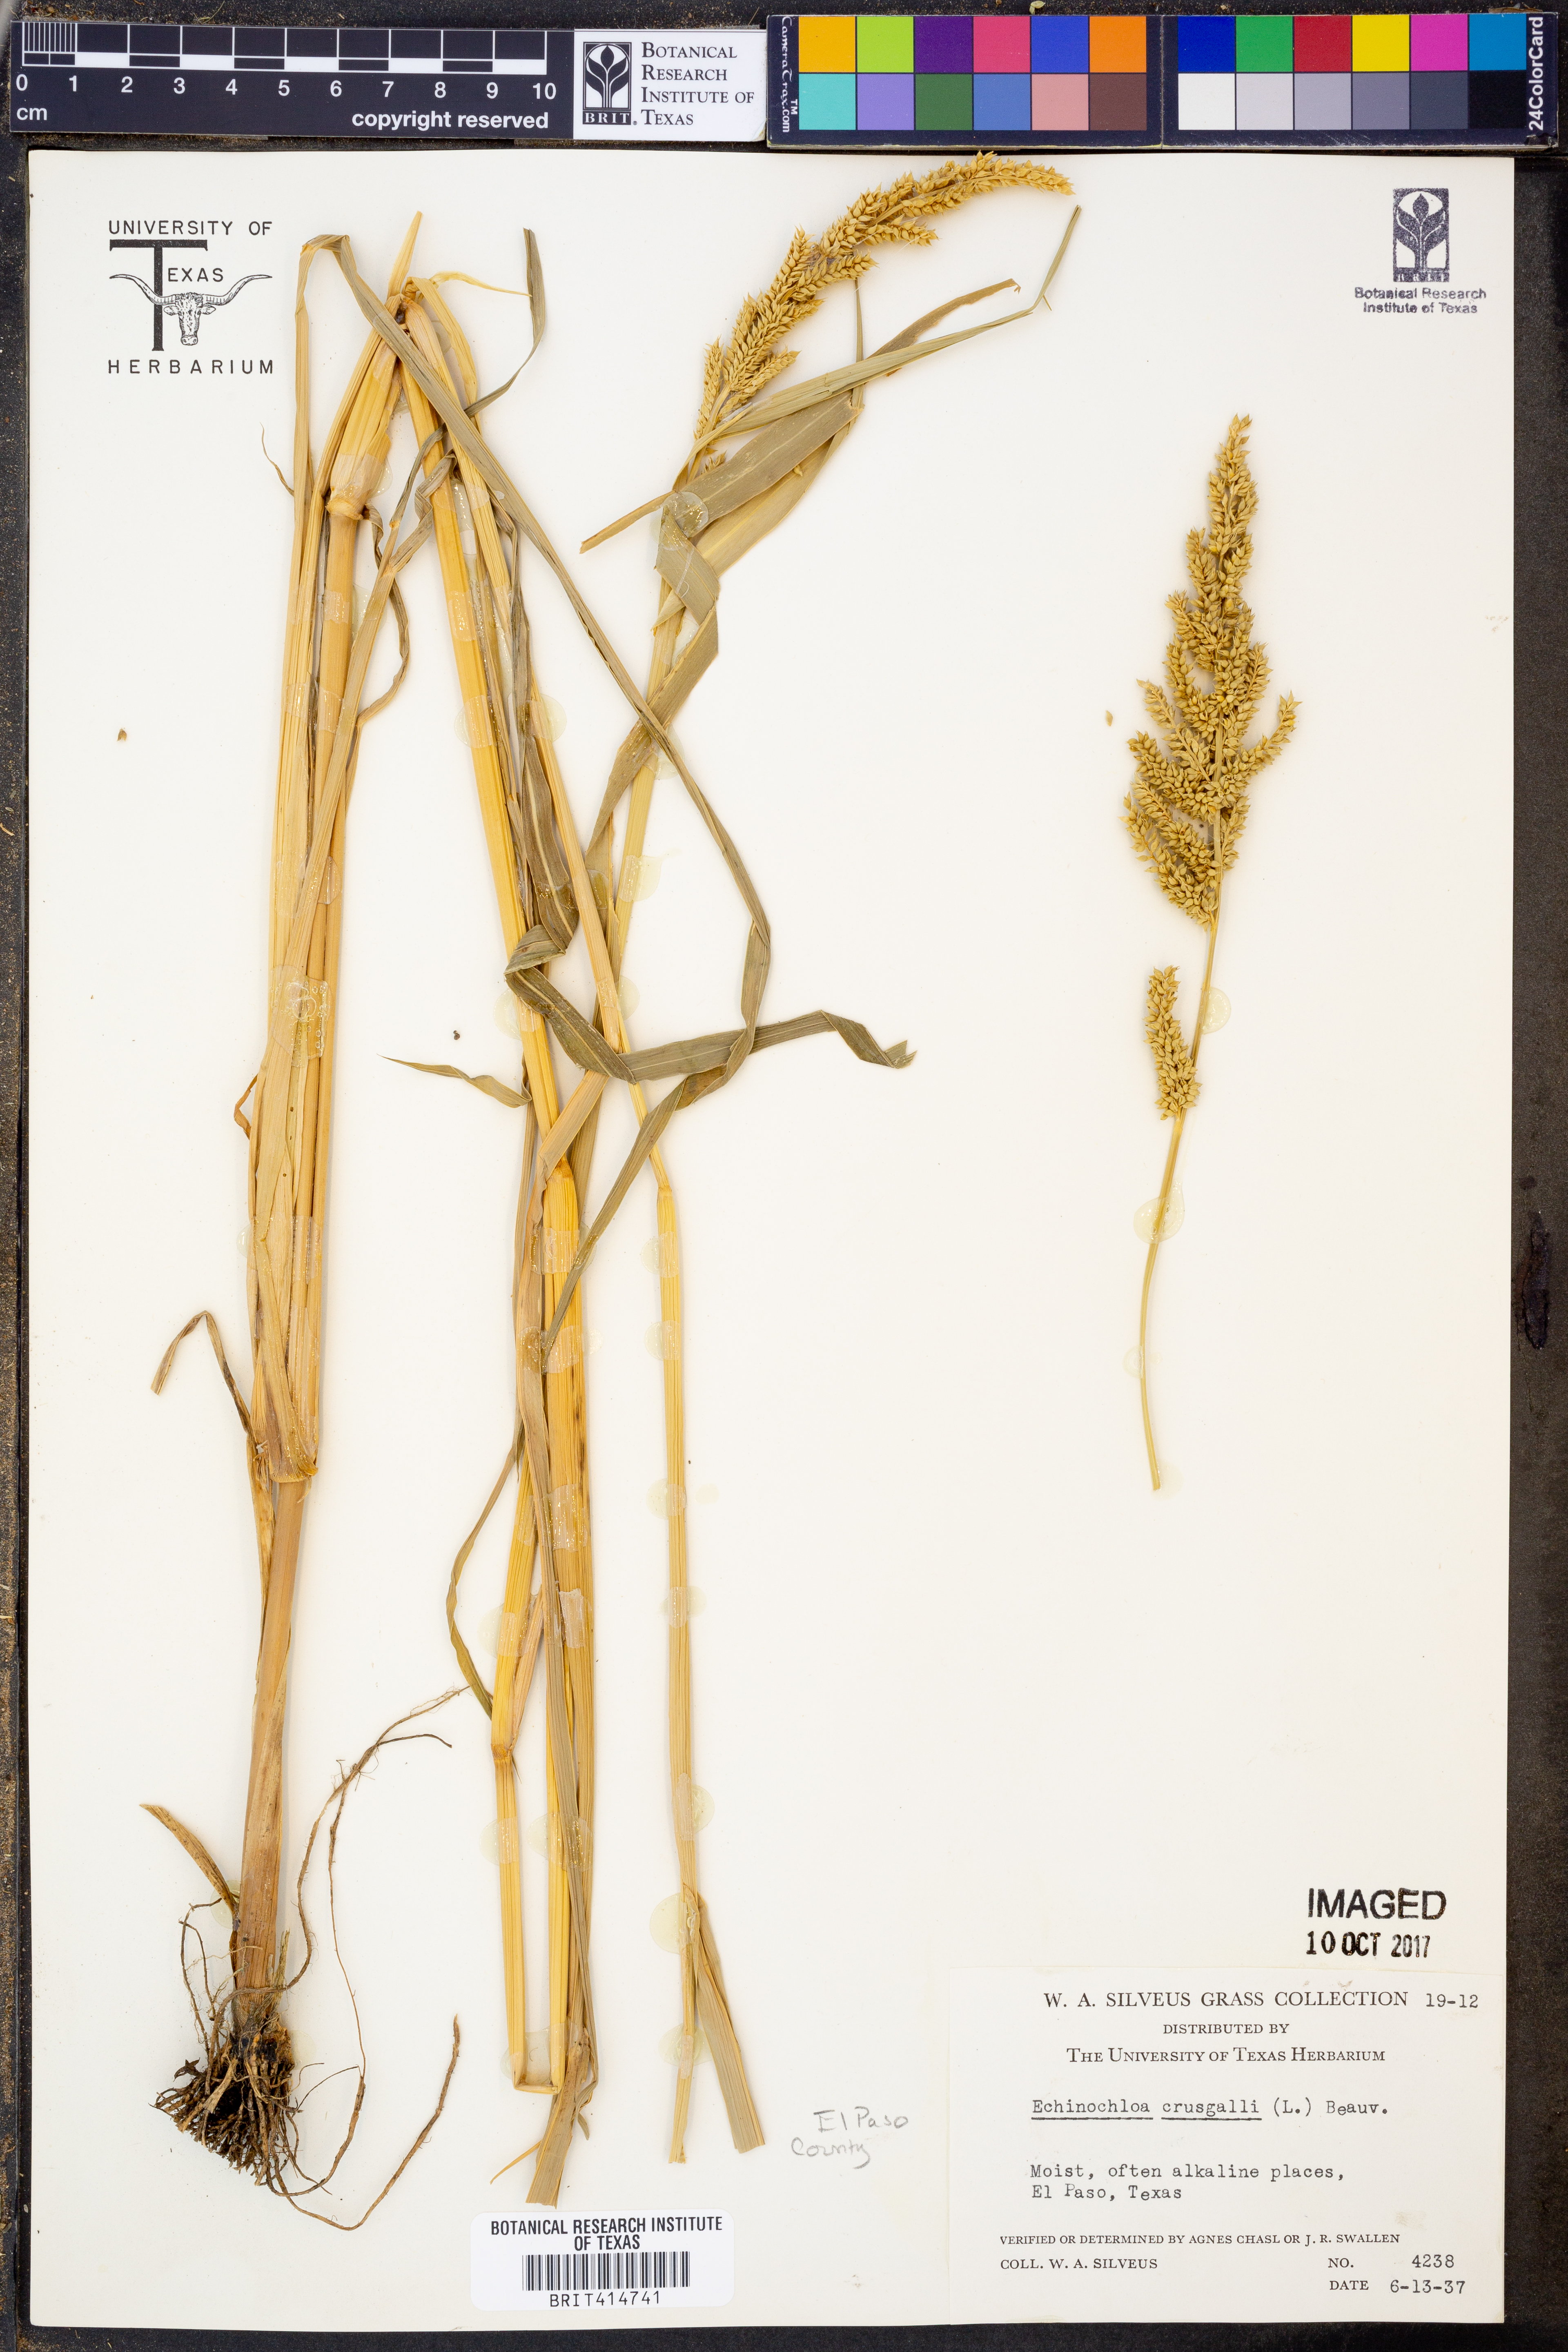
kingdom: Plantae
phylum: Tracheophyta
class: Liliopsida
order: Poales
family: Poaceae
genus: Echinochloa
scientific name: Echinochloa
